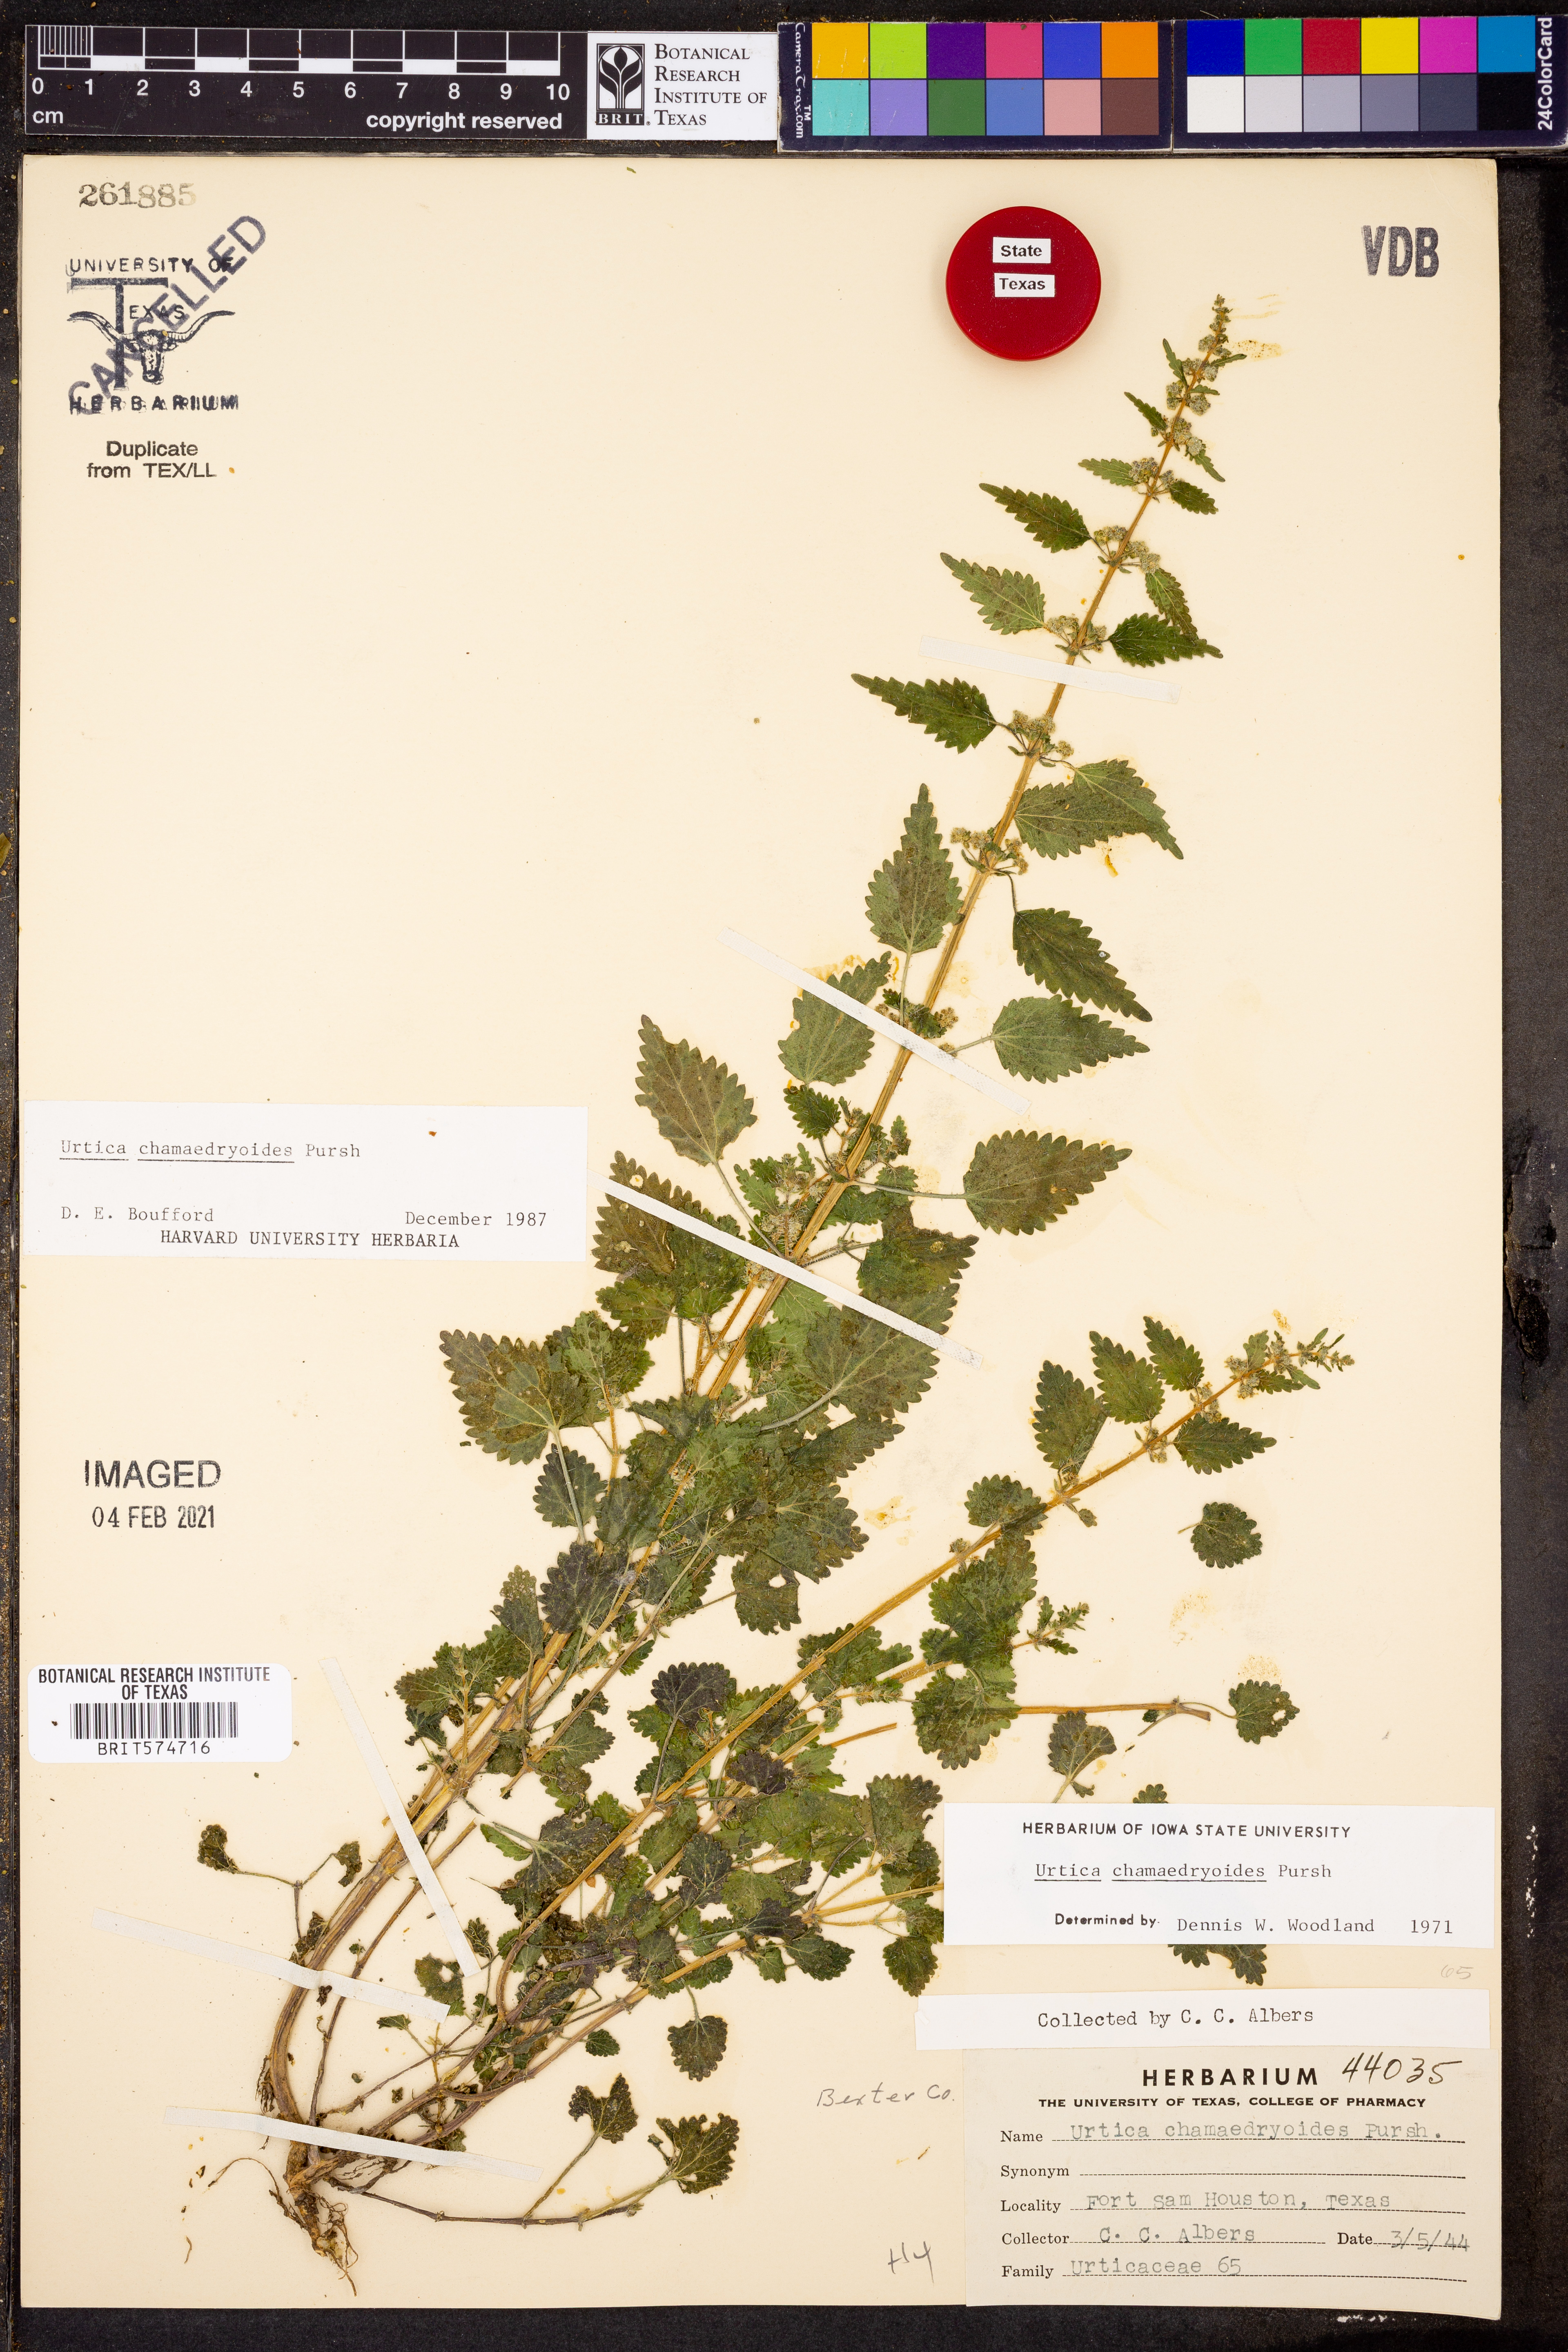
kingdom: Plantae
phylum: Tracheophyta
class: Magnoliopsida
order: Rosales
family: Urticaceae
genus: Urtica
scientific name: Urtica chamaedryoides
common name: Heart-leaf nettle
